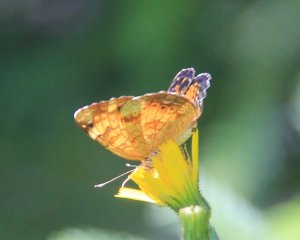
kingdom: Animalia
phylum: Arthropoda
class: Insecta
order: Lepidoptera
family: Nymphalidae
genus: Phyciodes
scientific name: Phyciodes tharos
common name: Northern Crescent
